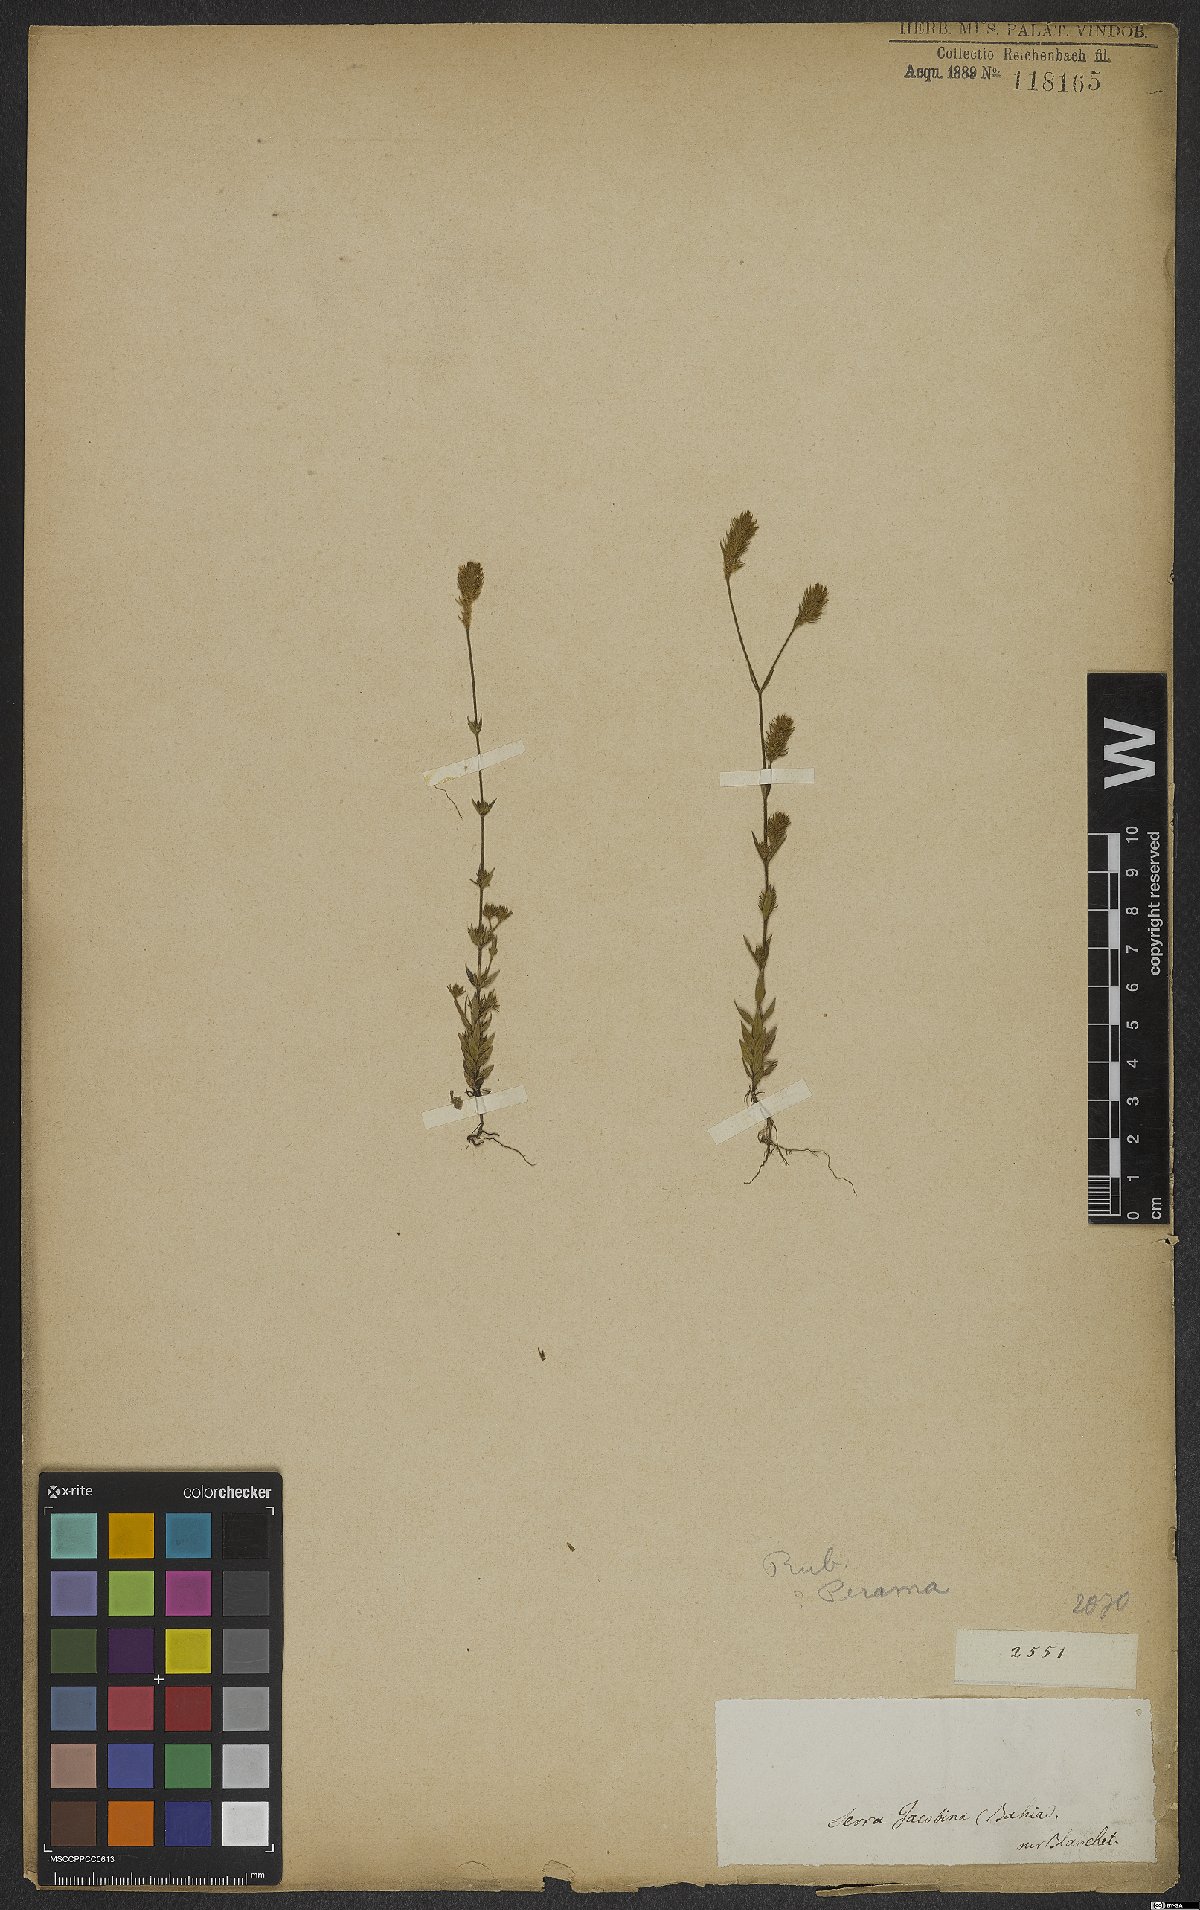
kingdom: Plantae
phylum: Tracheophyta
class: Magnoliopsida
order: Gentianales
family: Rubiaceae
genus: Perama
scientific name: Perama
